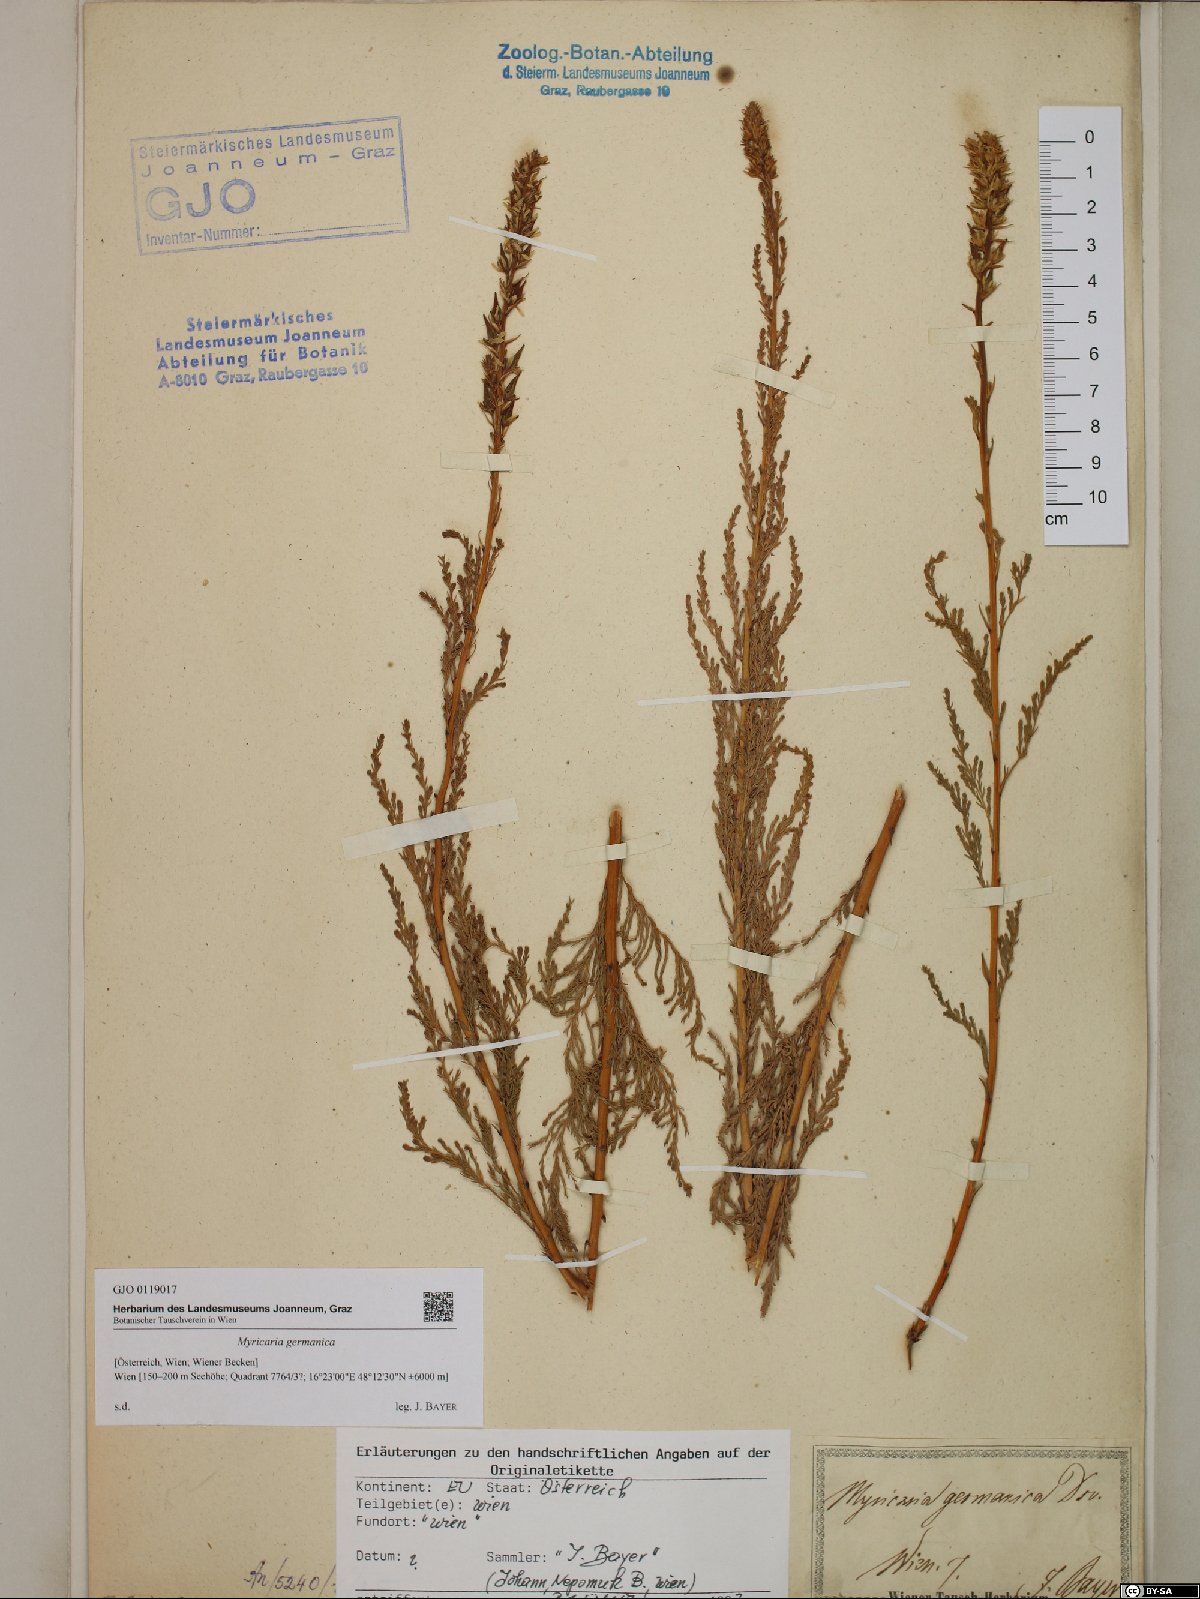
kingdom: Plantae
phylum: Tracheophyta
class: Magnoliopsida
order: Caryophyllales
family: Tamaricaceae
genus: Myricaria
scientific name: Myricaria germanica
